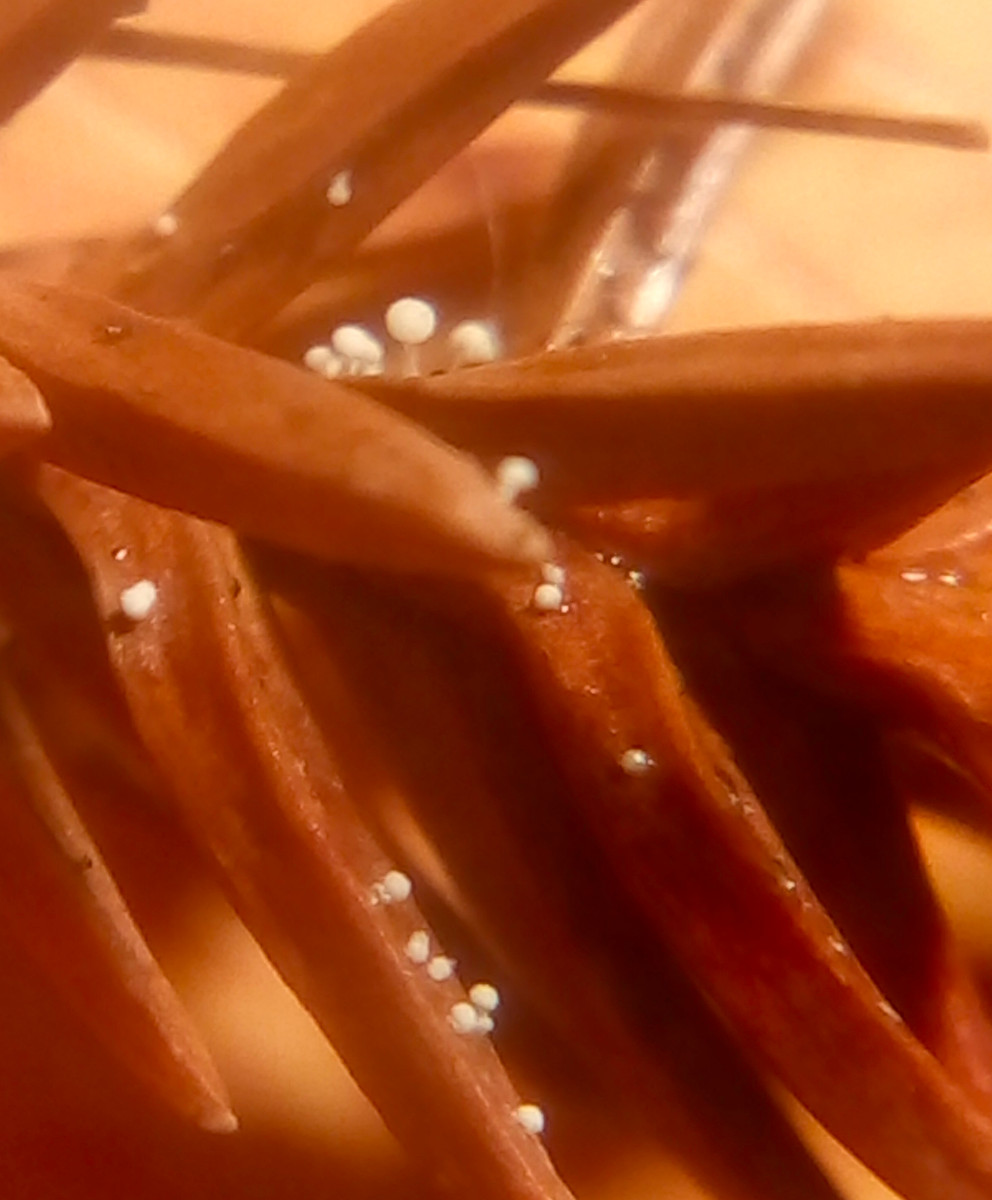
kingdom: Fungi
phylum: Basidiomycota
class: Agaricomycetes
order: Agaricales
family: Physalacriaceae
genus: Physalacria
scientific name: Physalacria cryptomeriae
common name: japangran-boldkølle
